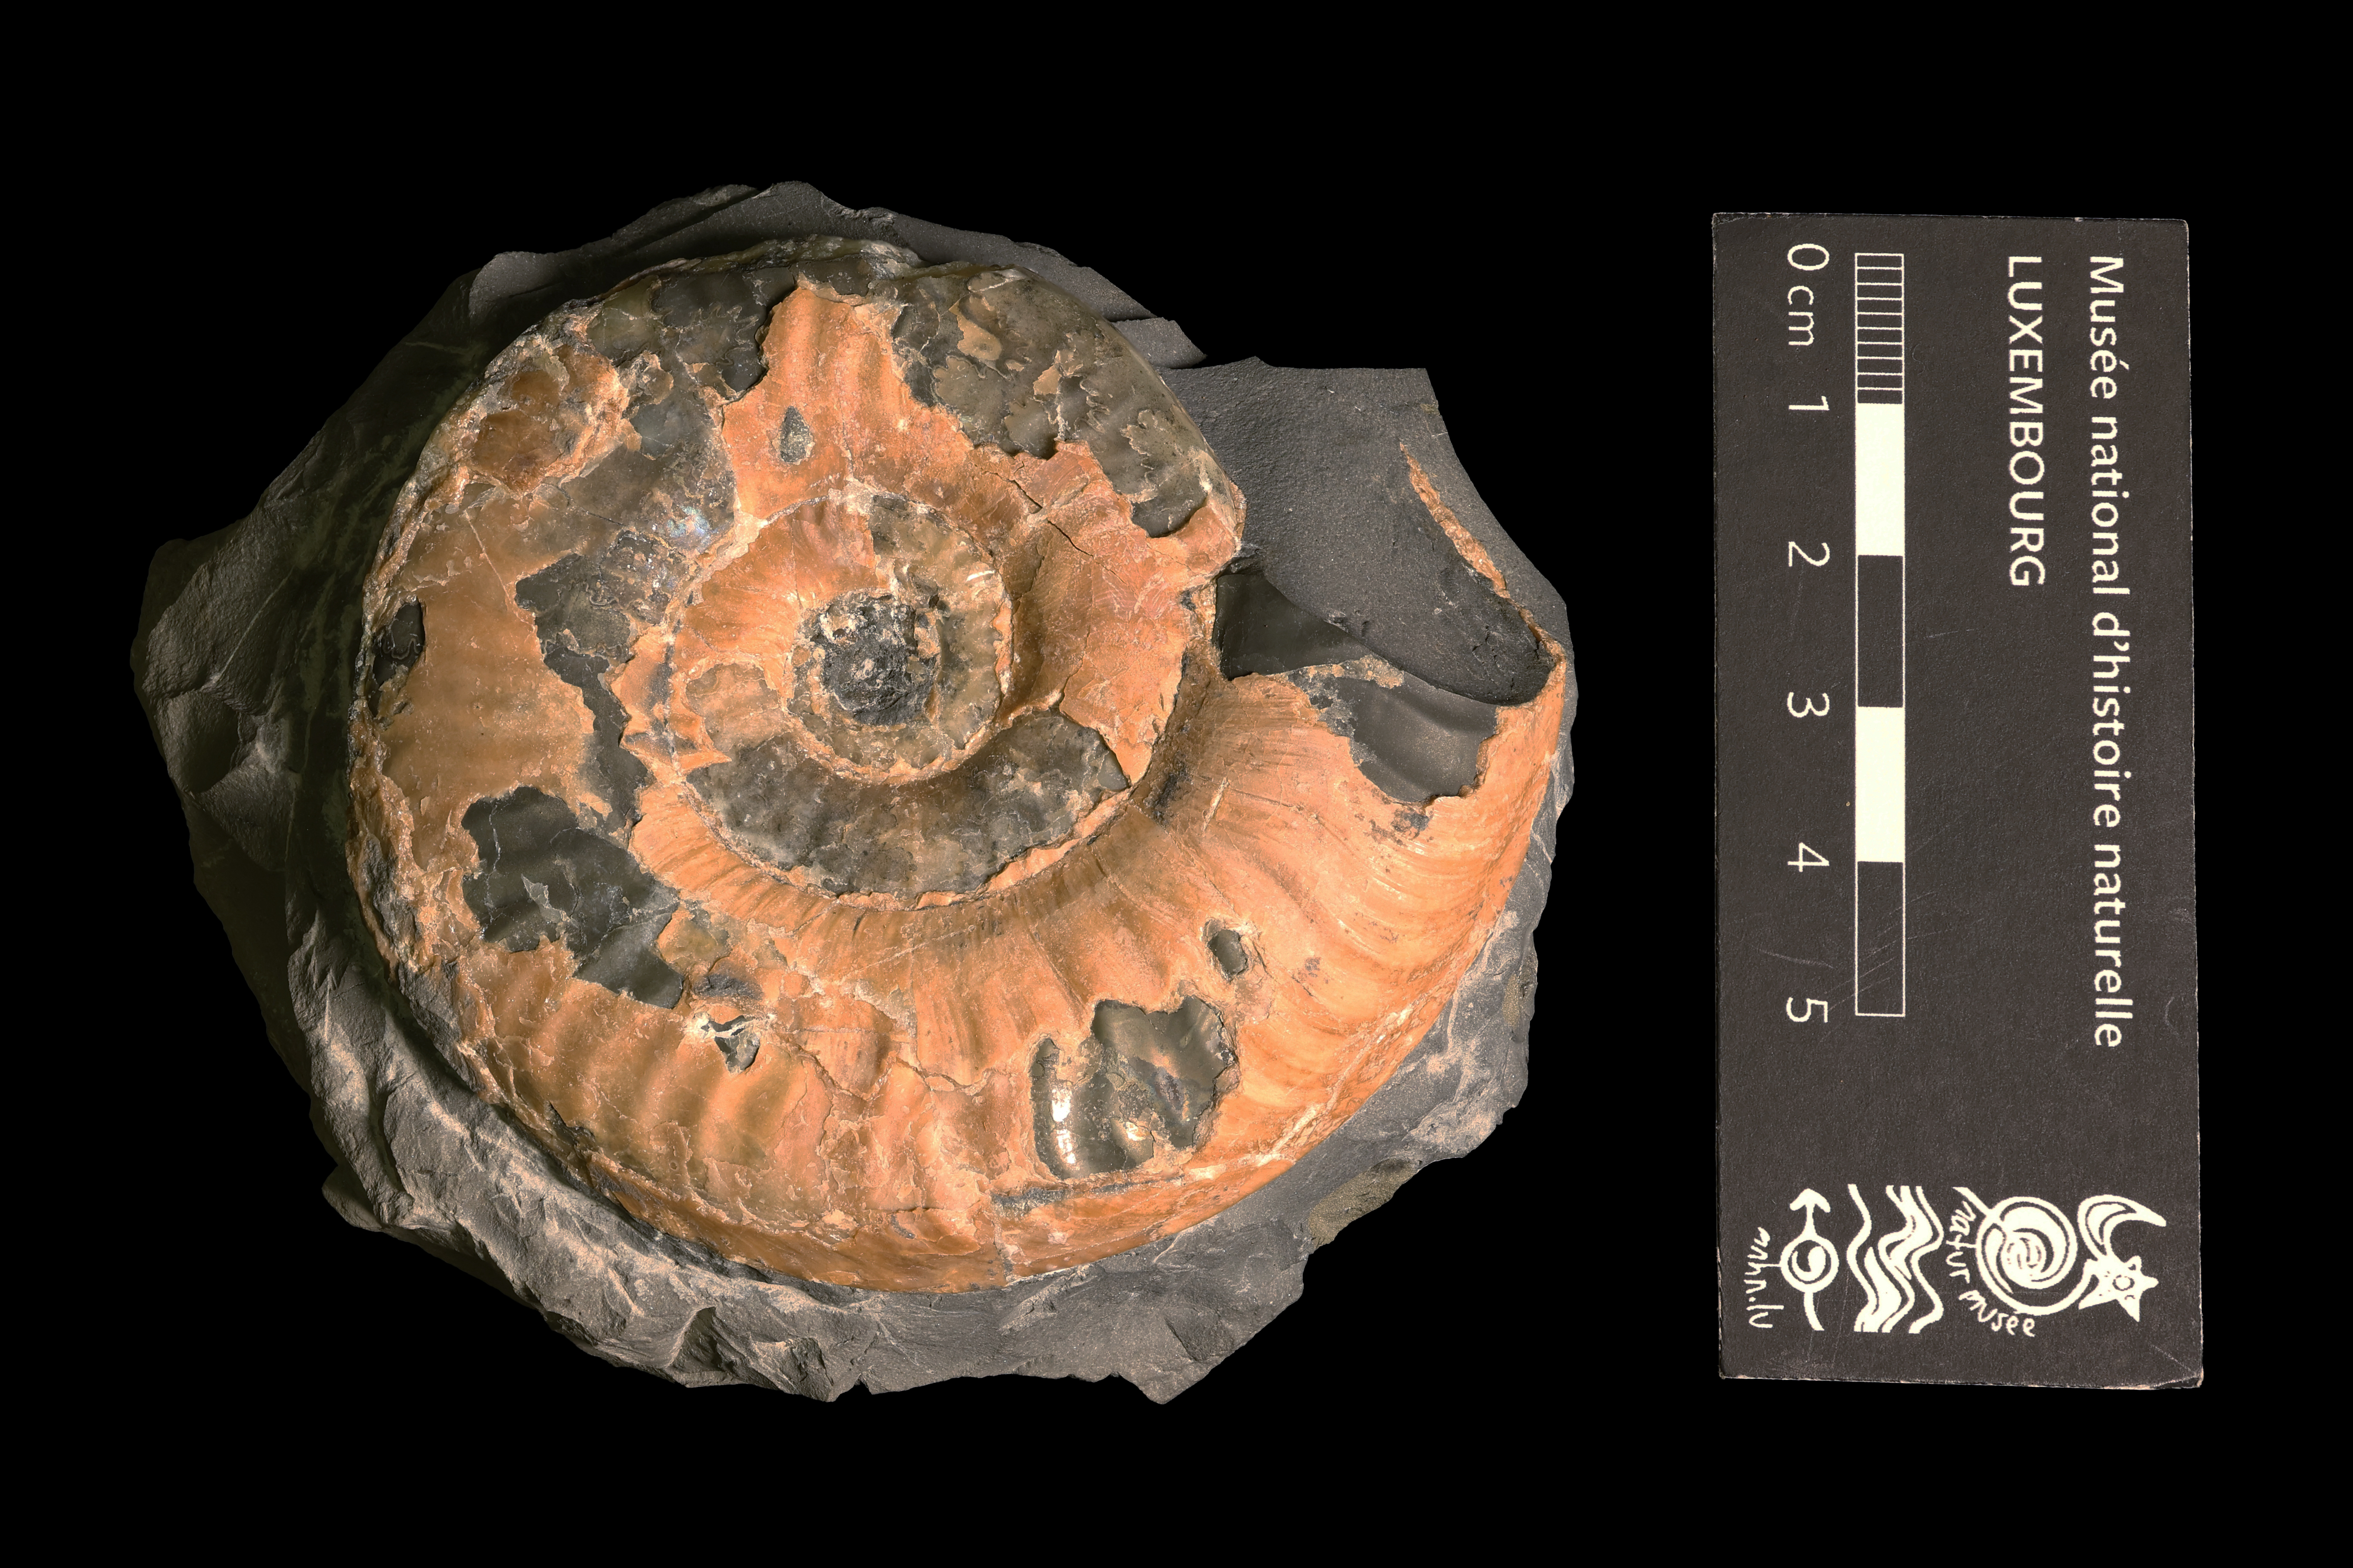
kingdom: Animalia
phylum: Mollusca
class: Cephalopoda
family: Hildoceratidae
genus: Grammoceras
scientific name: Grammoceras thouarsense
